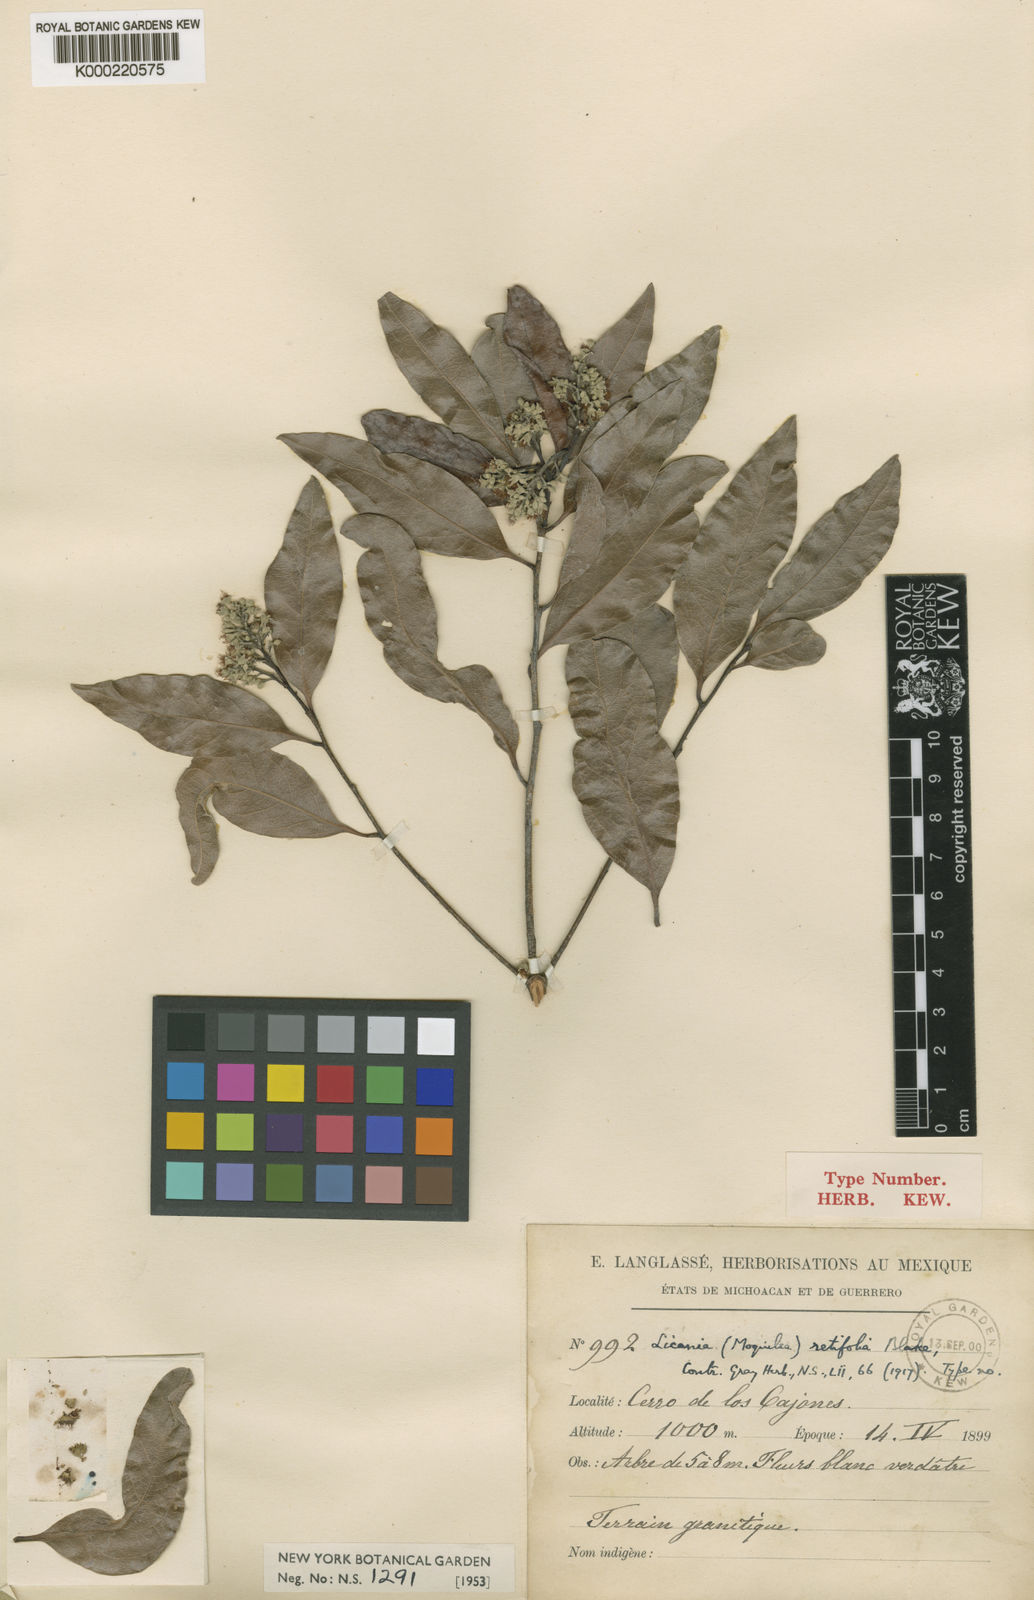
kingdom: Plantae
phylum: Tracheophyta
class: Magnoliopsida
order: Malpighiales
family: Chrysobalanaceae
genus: Geobalanus
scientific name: Geobalanus retifolius
